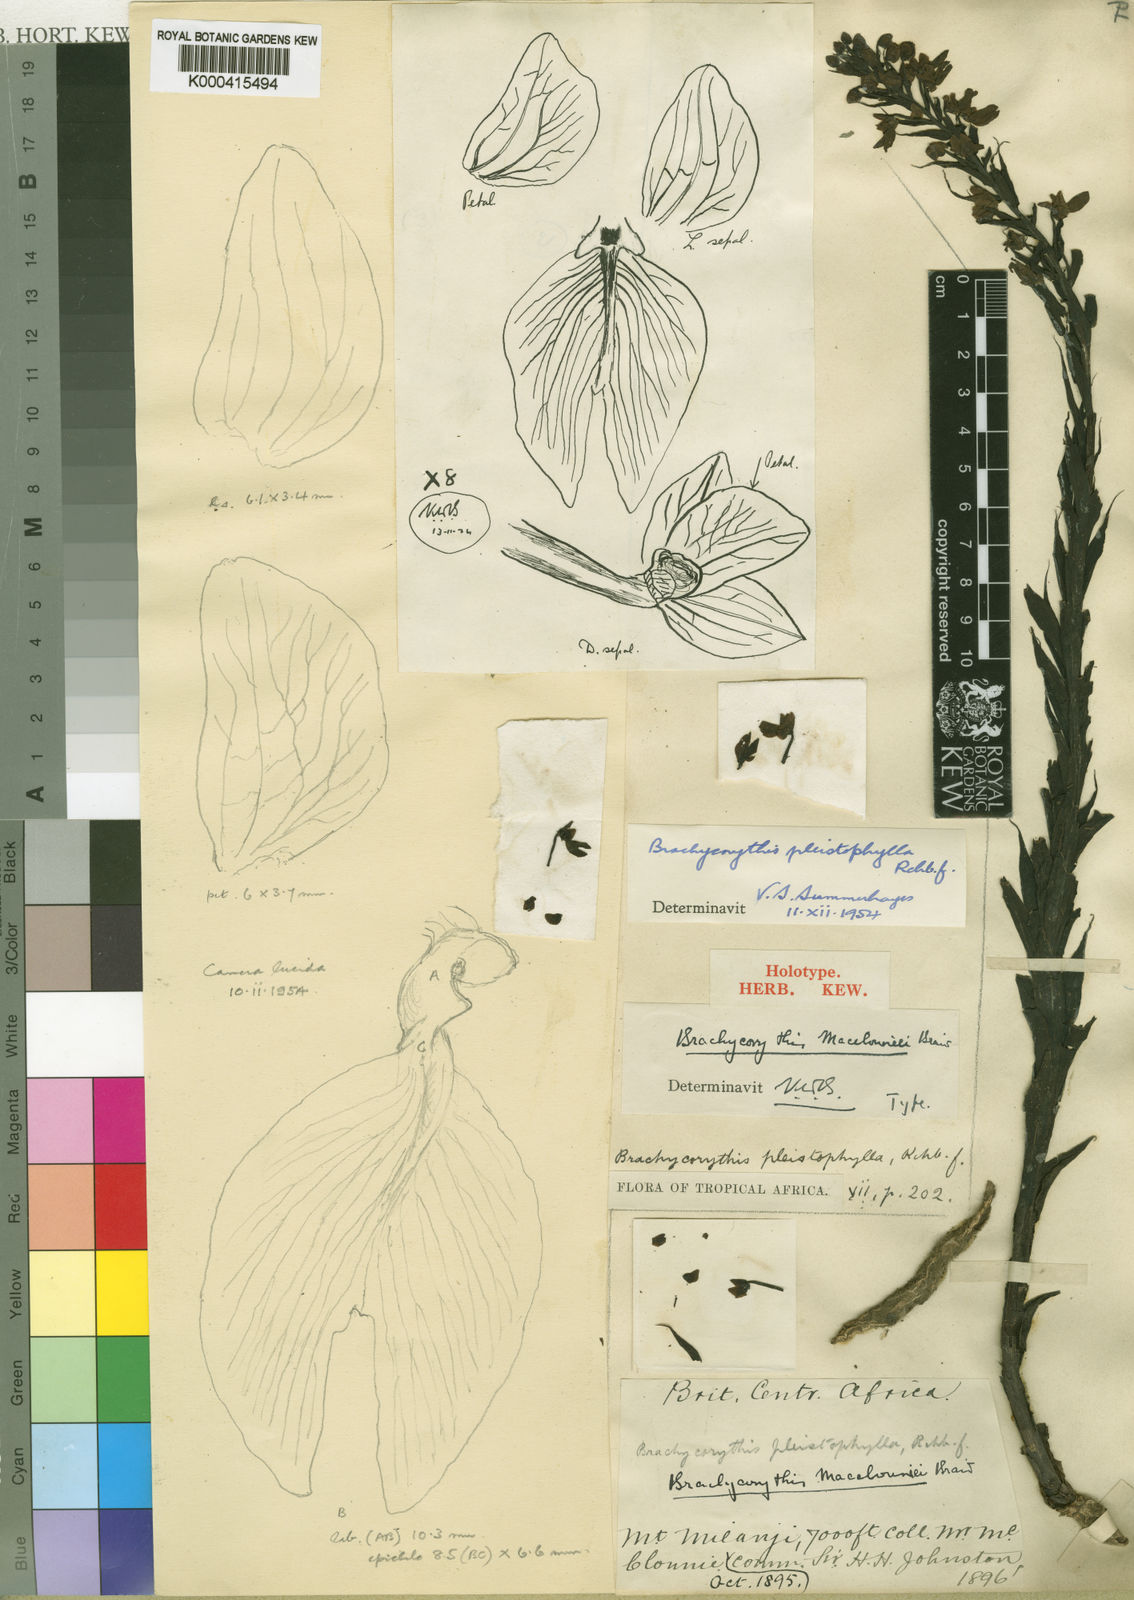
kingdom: Plantae
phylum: Tracheophyta
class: Liliopsida
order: Asparagales
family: Orchidaceae
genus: Brachycorythis
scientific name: Brachycorythis pleistophylla
